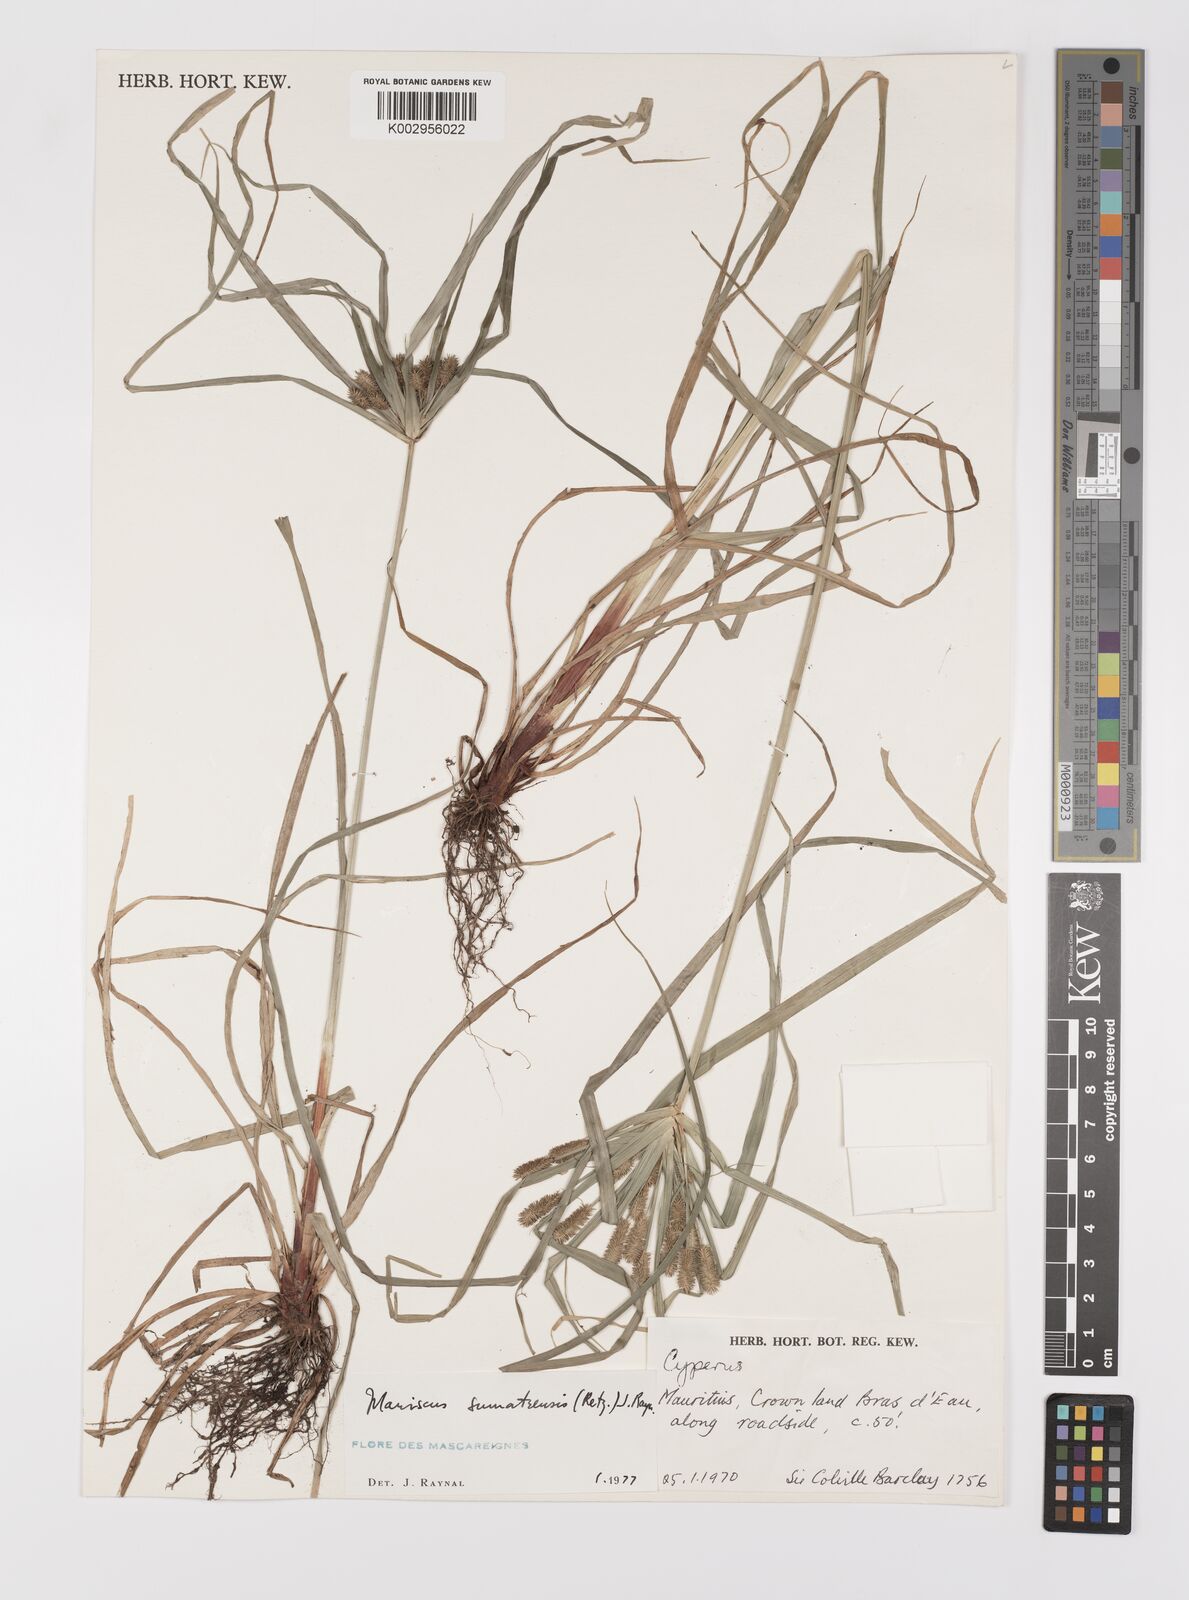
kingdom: Plantae
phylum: Tracheophyta
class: Liliopsida
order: Poales
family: Cyperaceae
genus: Cyperus
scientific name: Cyperus cyperoides
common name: Pacific island flat sedge
